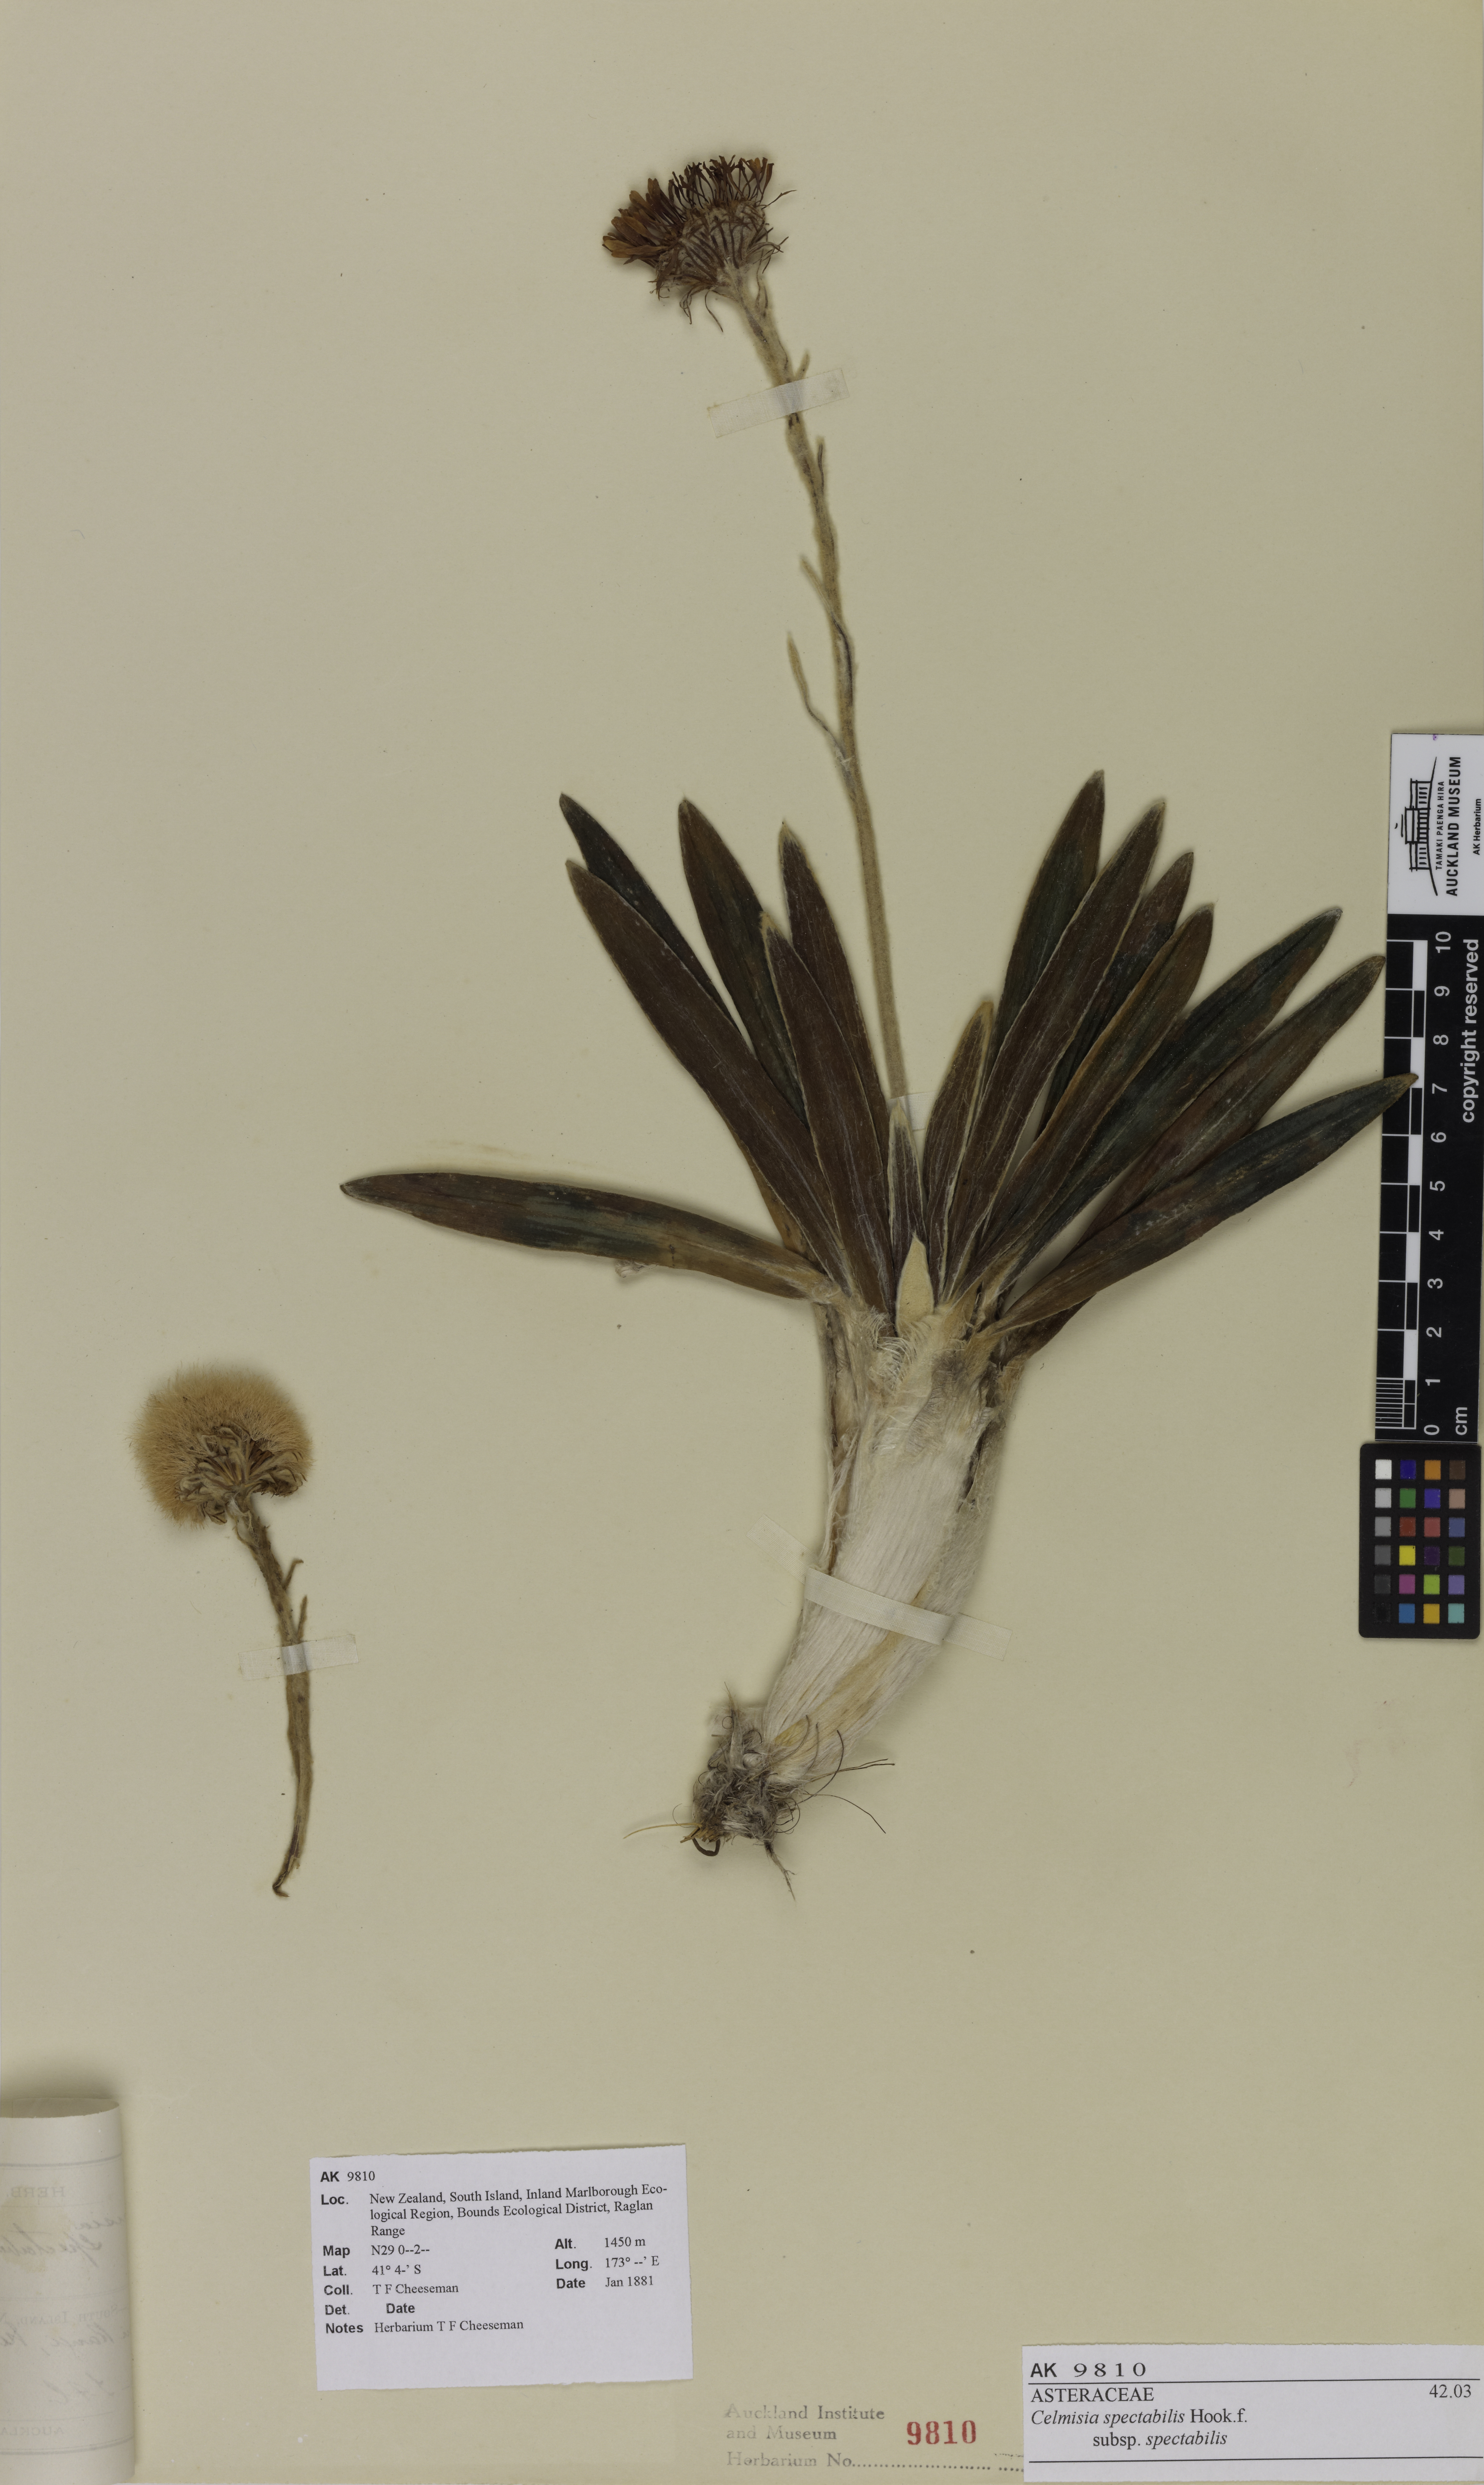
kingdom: Plantae
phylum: Tracheophyta
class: Magnoliopsida
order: Asterales
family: Asteraceae
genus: Celmisia
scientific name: Celmisia spectabilis
